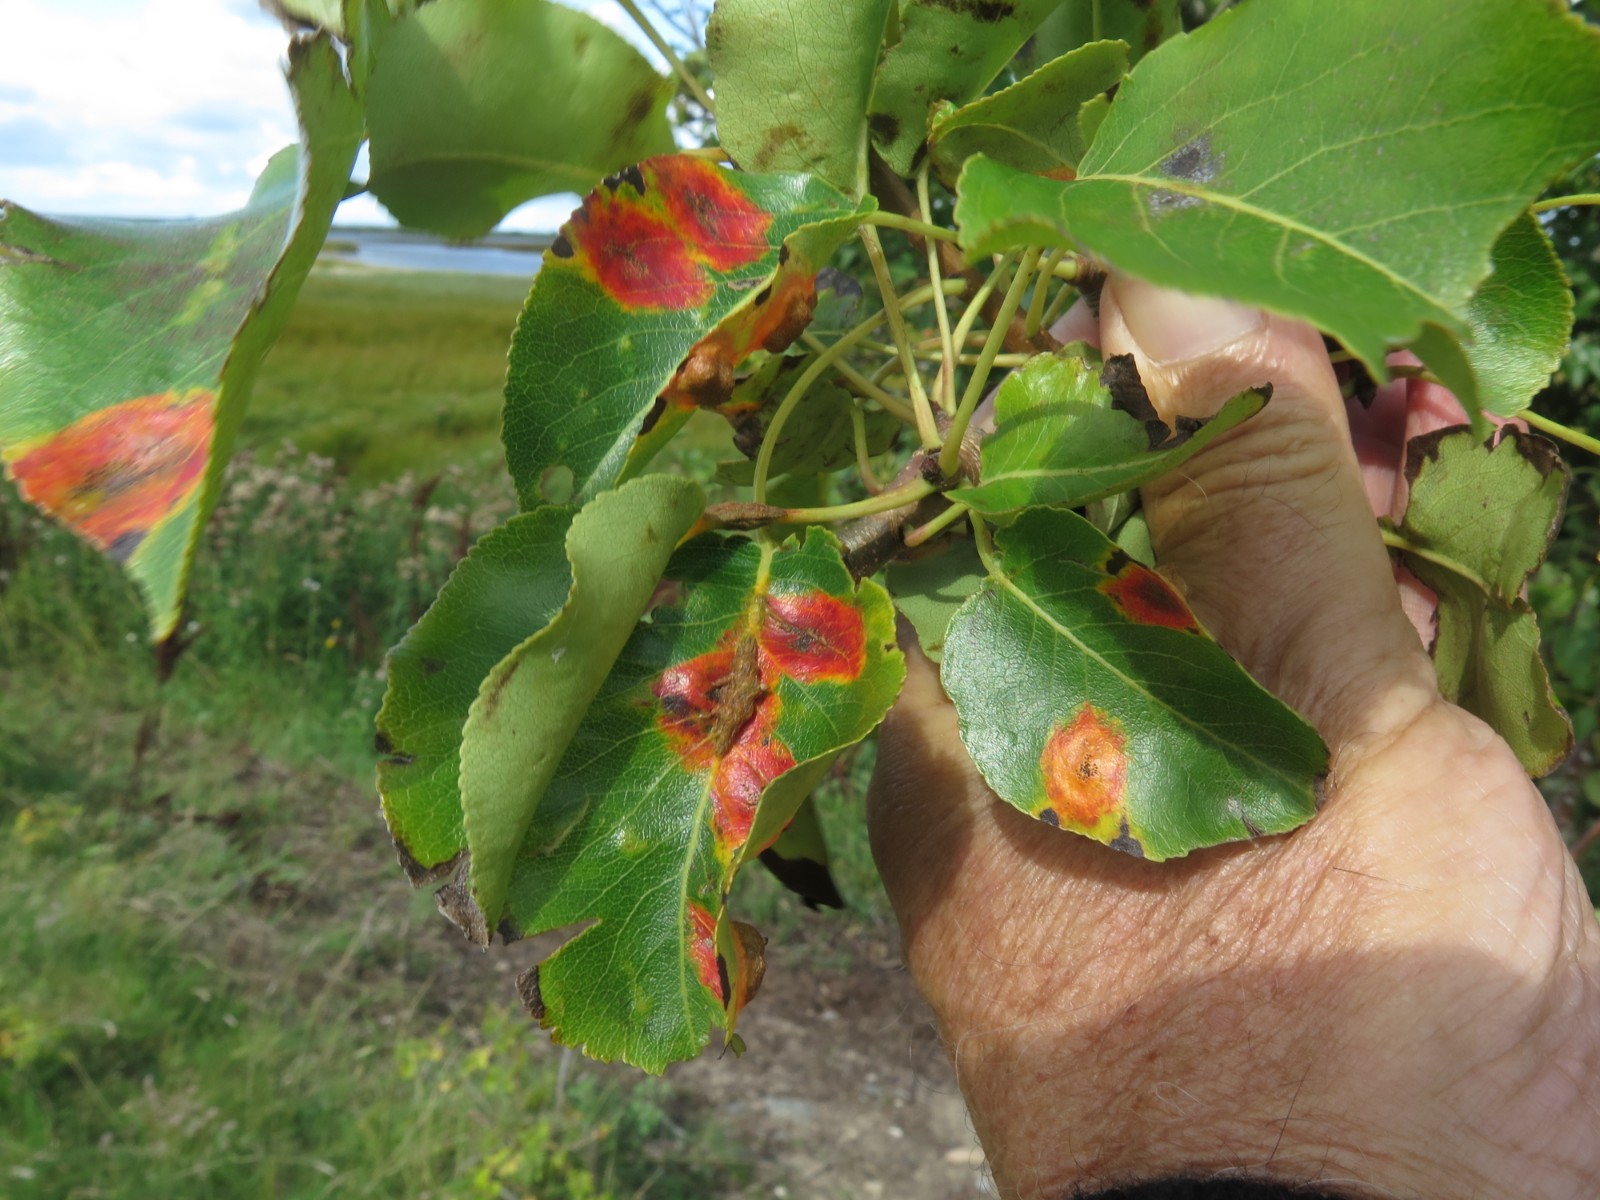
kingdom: Fungi
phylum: Basidiomycota
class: Pucciniomycetes
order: Pucciniales
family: Gymnosporangiaceae
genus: Gymnosporangium
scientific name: Gymnosporangium sabinae
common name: pæregitter-bævrerust
